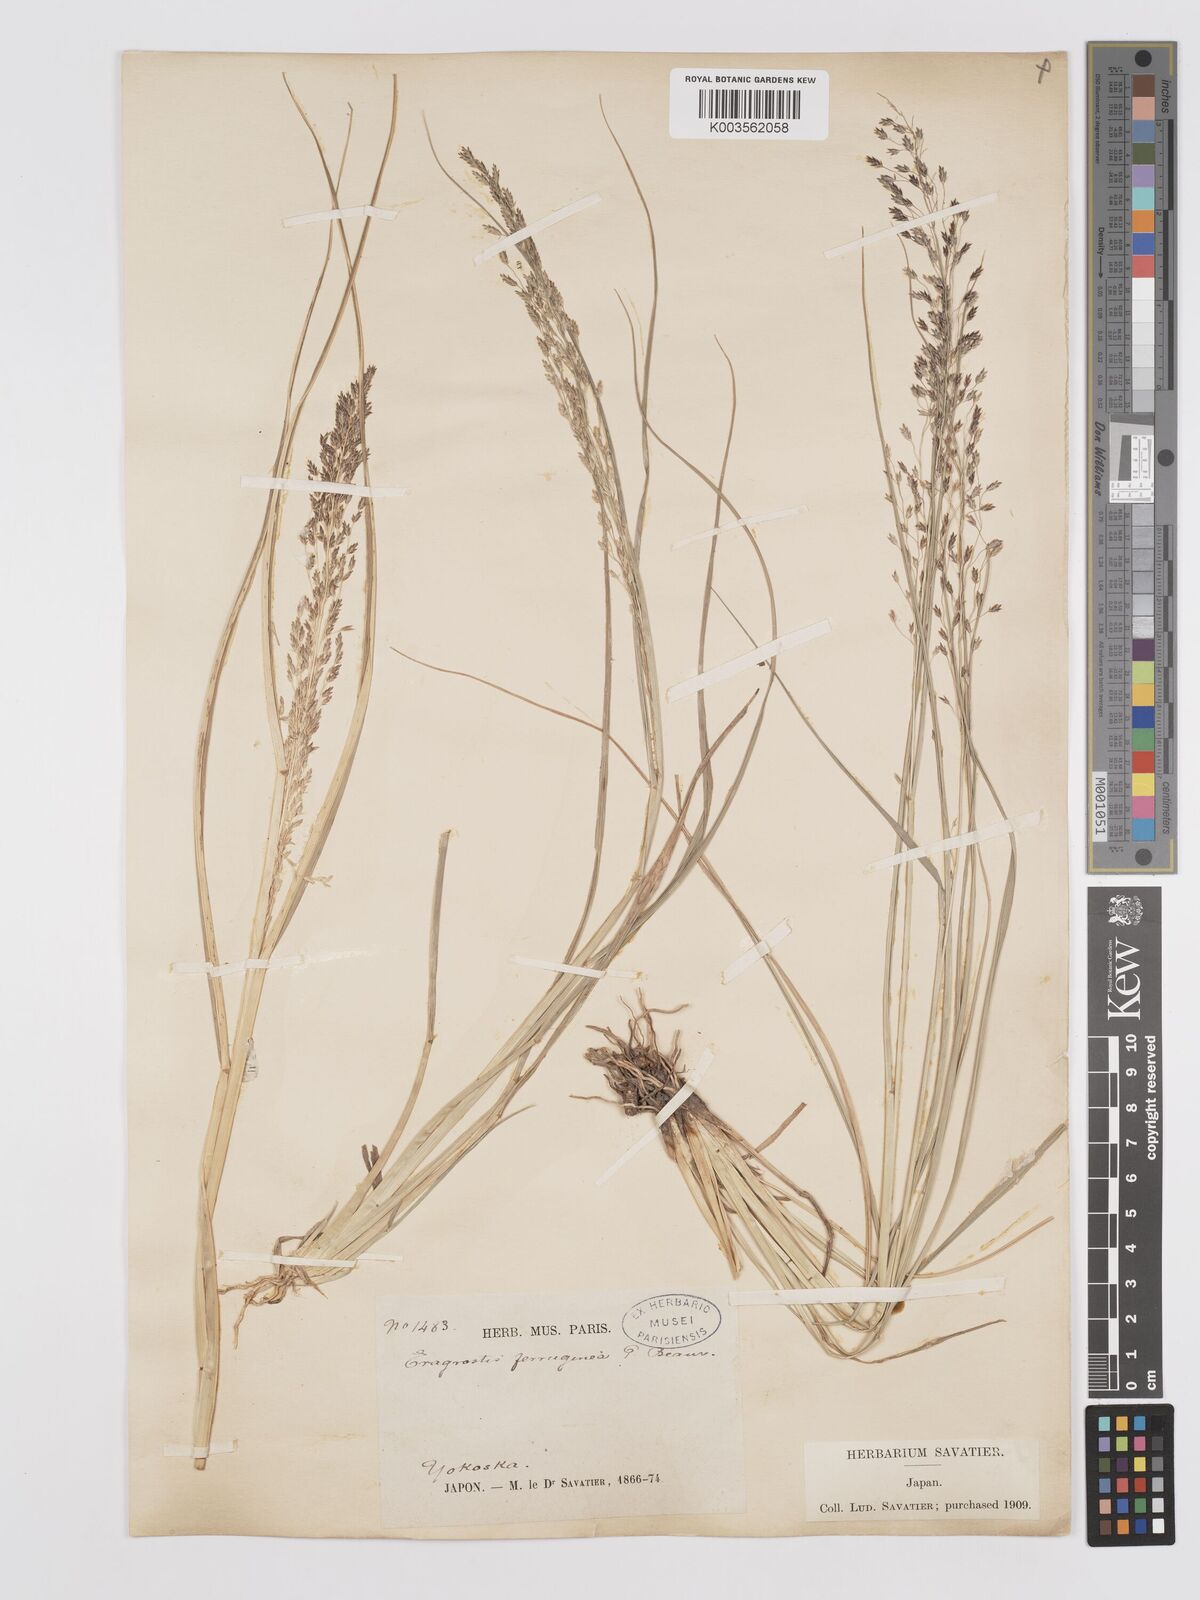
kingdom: Plantae
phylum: Tracheophyta
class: Liliopsida
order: Poales
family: Poaceae
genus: Eragrostis
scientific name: Eragrostis ferruginea
